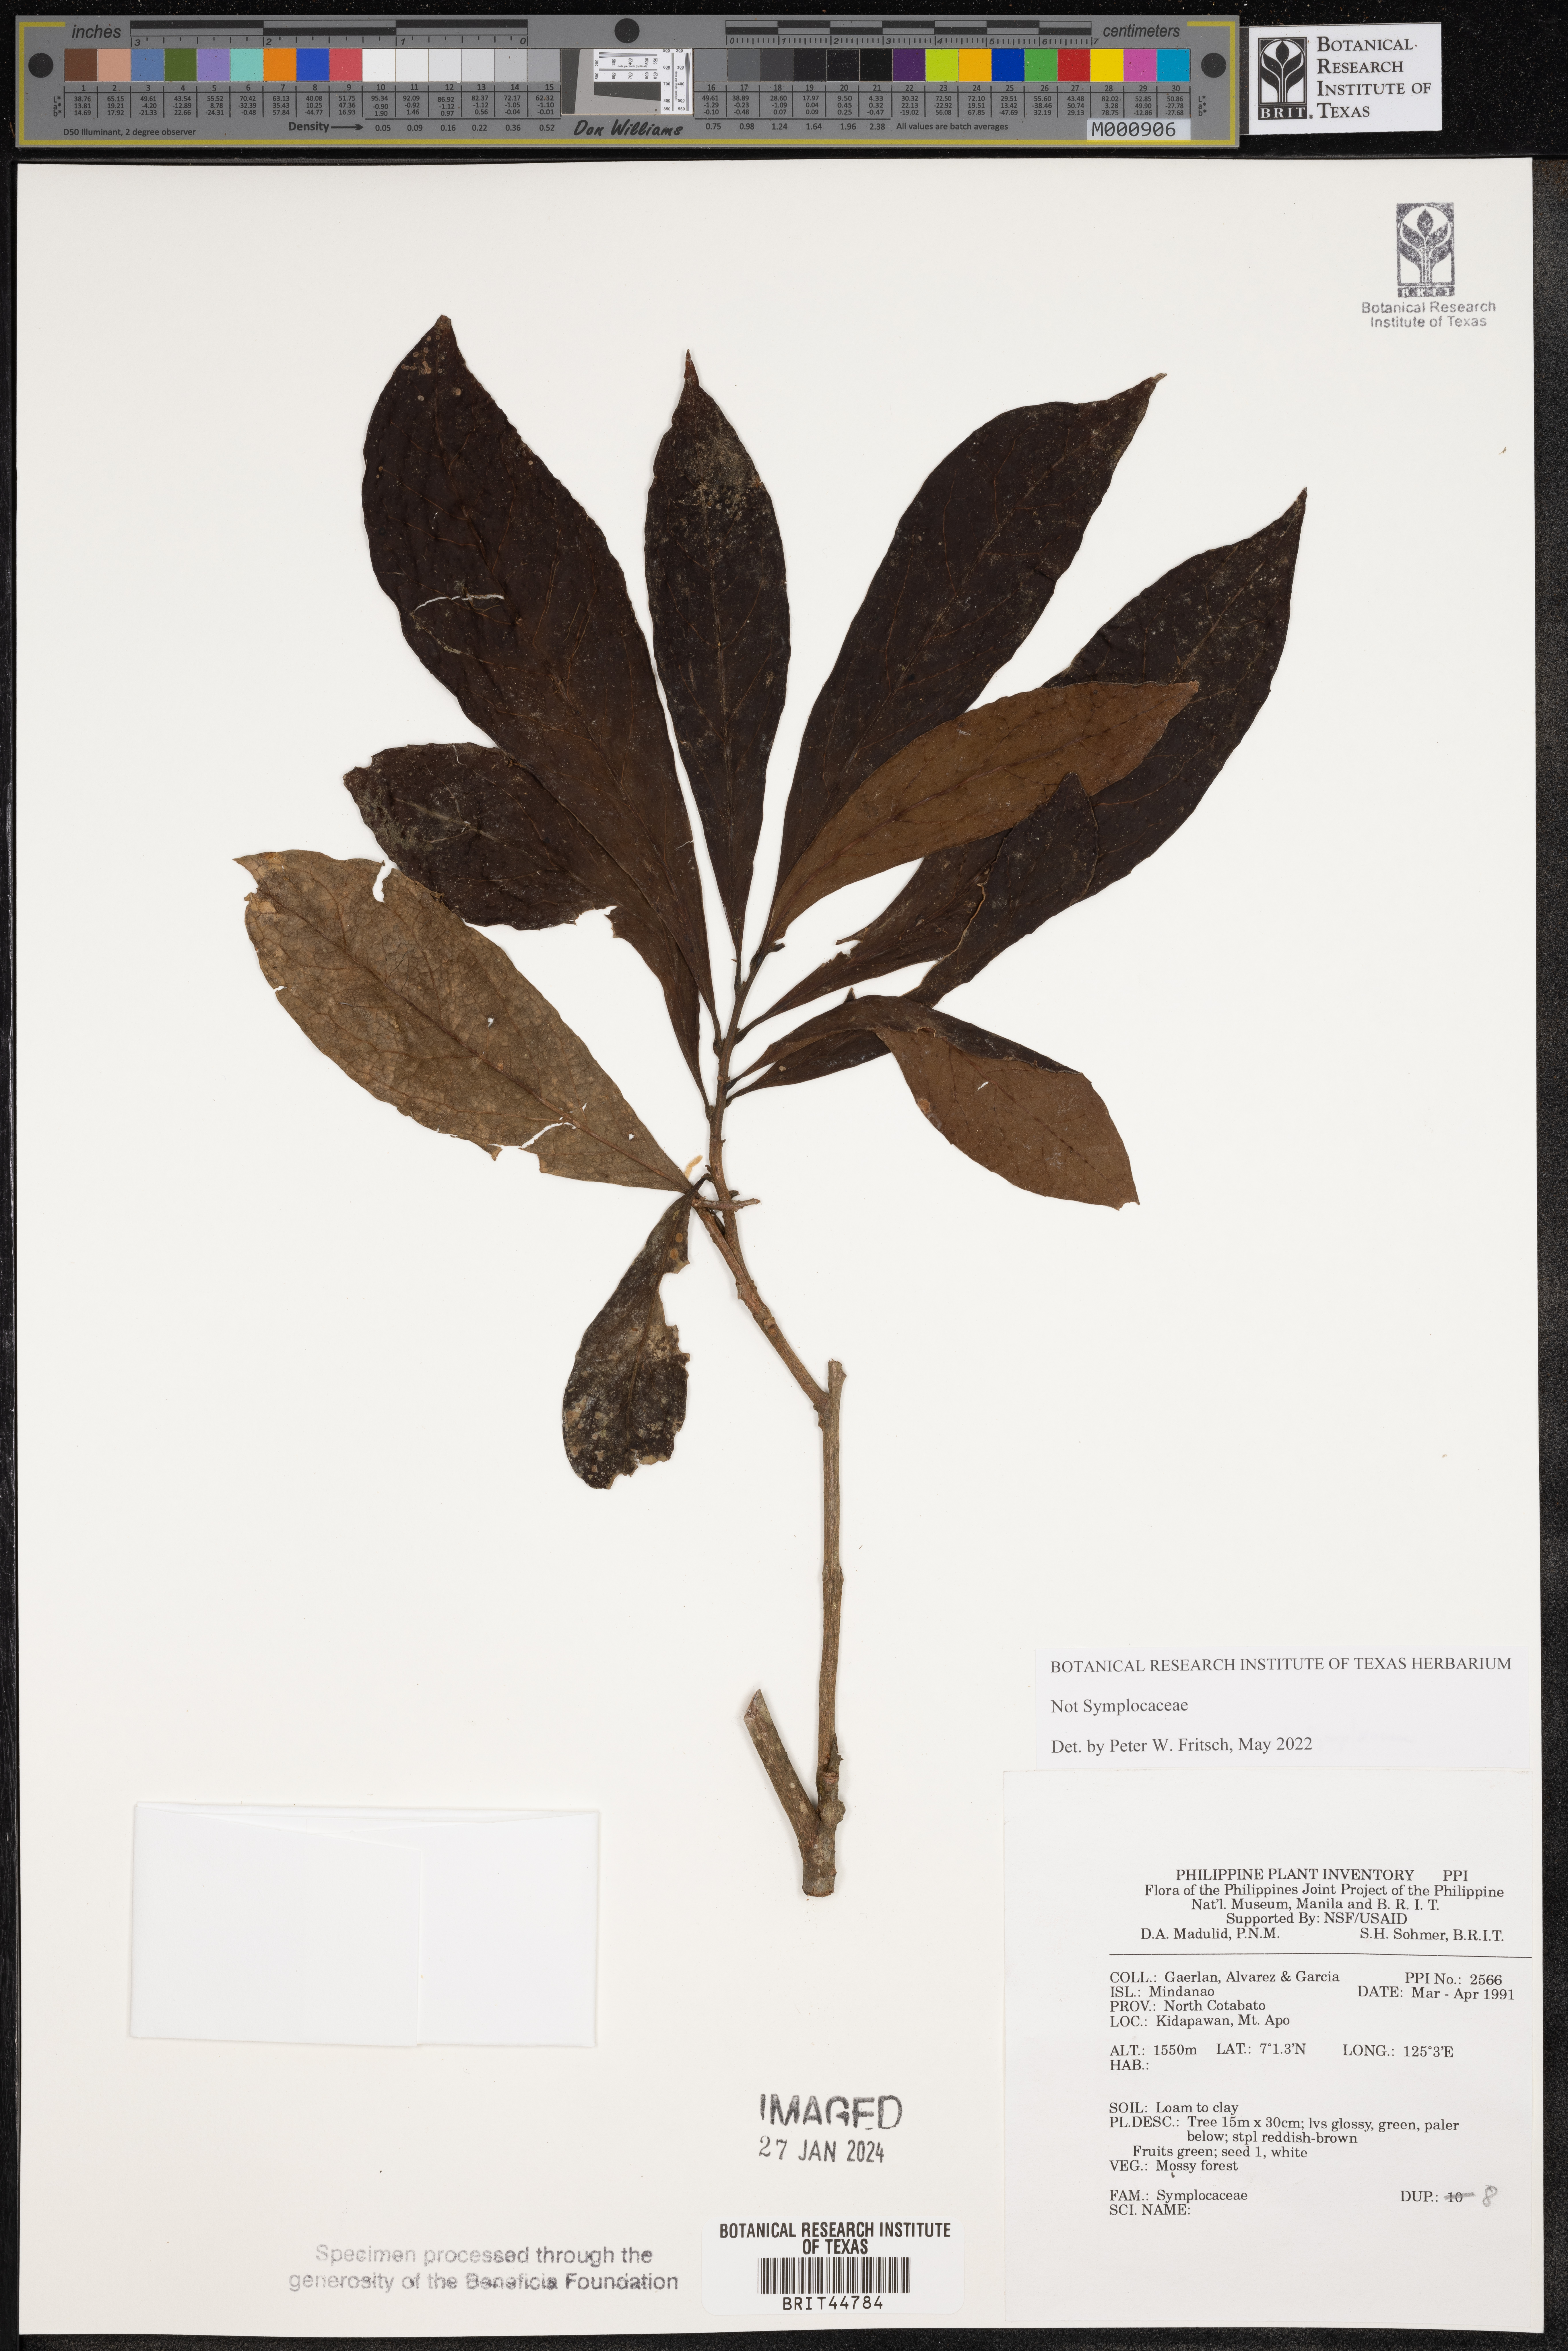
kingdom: Plantae
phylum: Tracheophyta
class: Magnoliopsida
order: Ericales
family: Symplocaceae
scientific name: Symplocaceae
